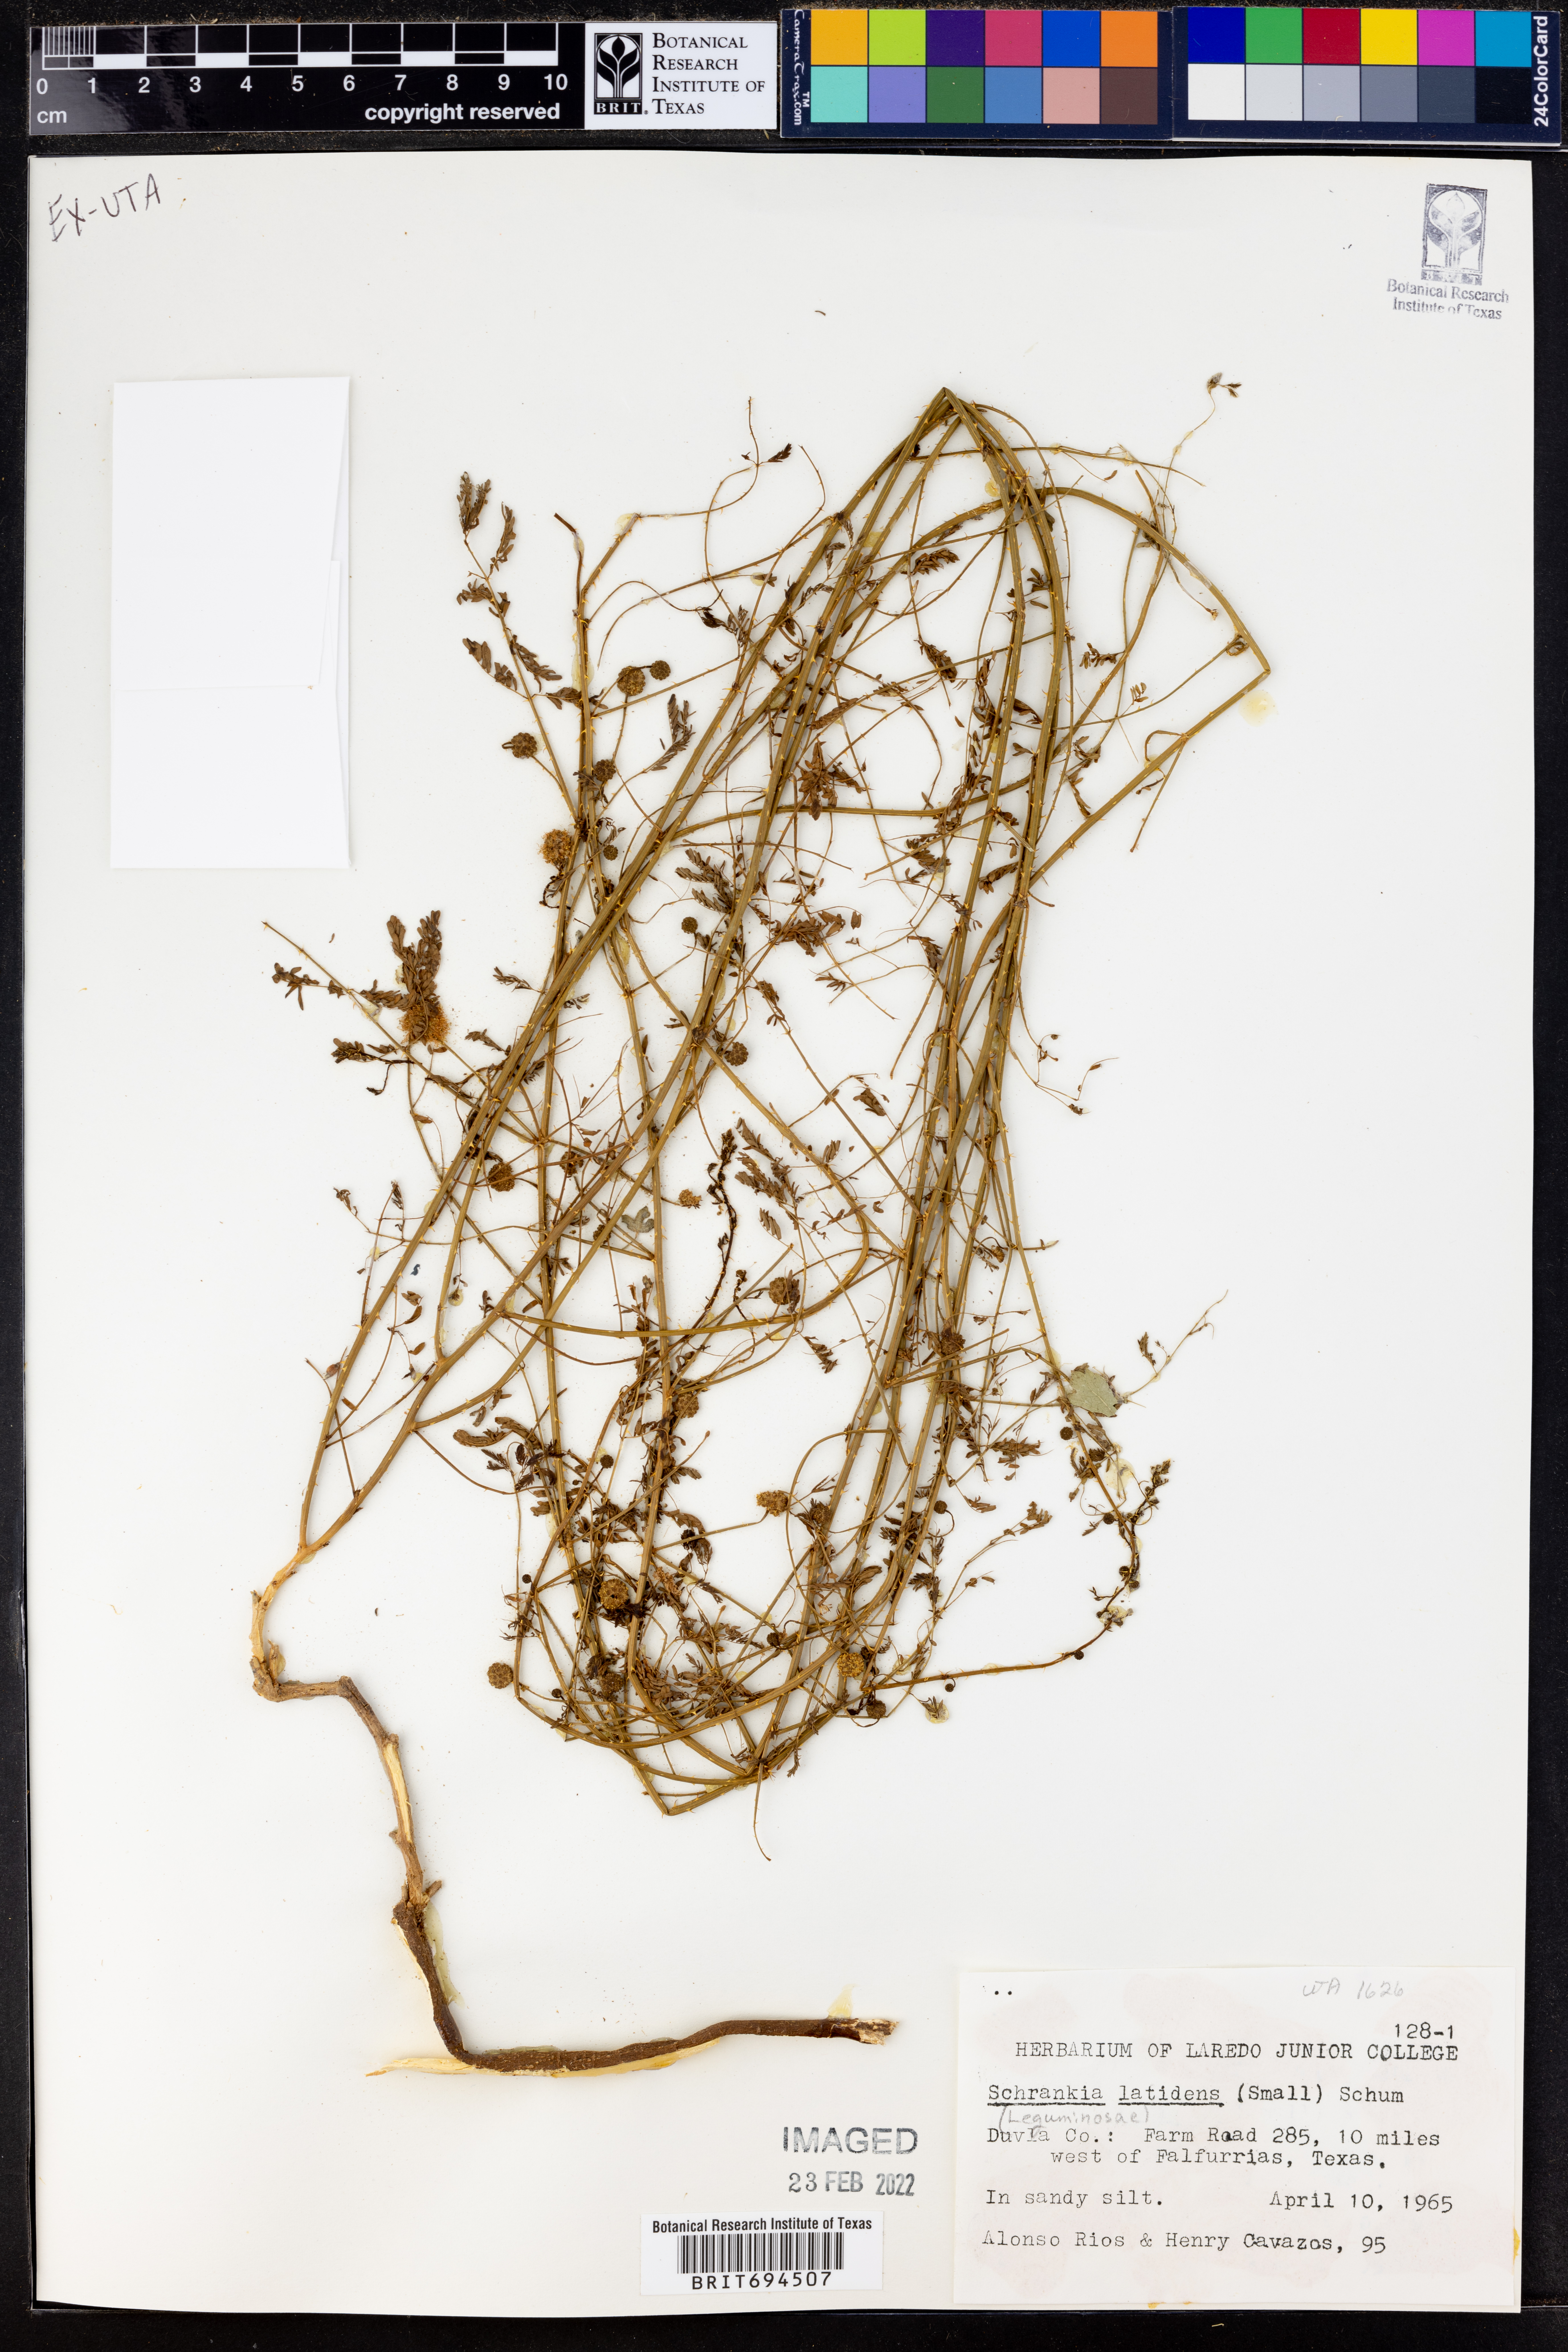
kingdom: Plantae
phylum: Tracheophyta
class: Magnoliopsida
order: Fabales
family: Fabaceae
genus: Mimosa
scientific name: Mimosa quadrivalvis
